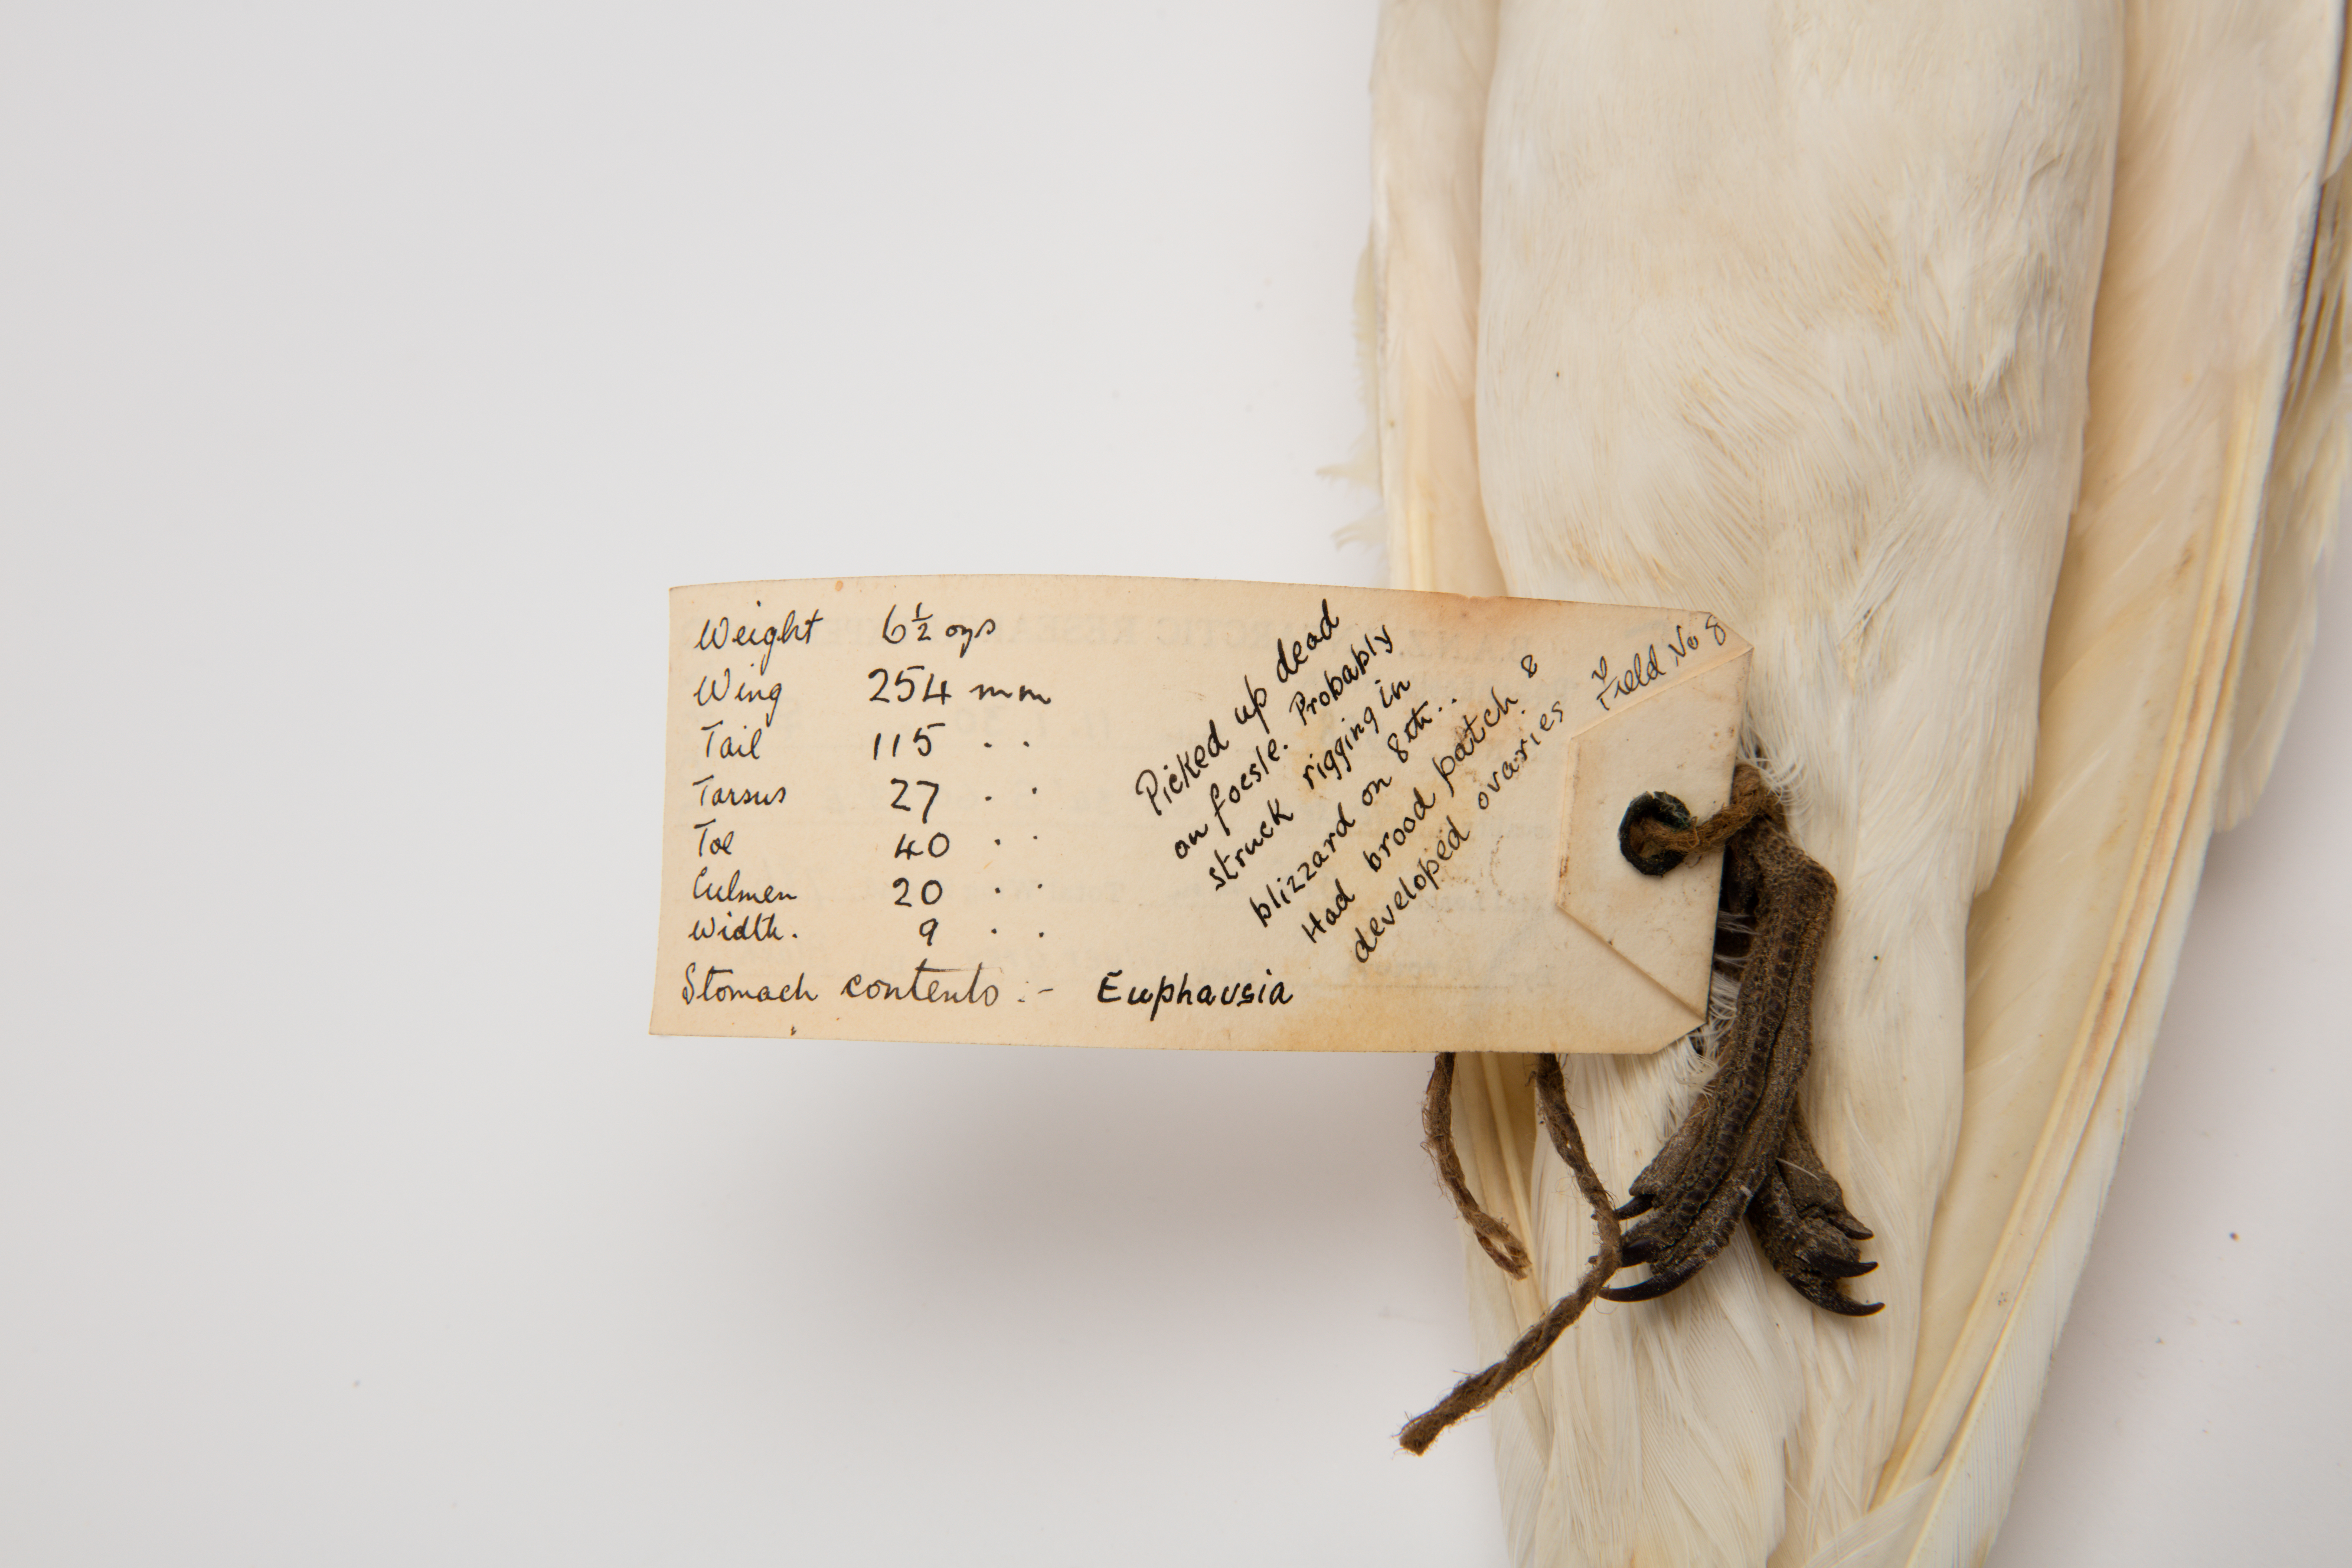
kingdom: Animalia
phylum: Chordata
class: Aves
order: Procellariiformes
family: Procellariidae
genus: Pagodroma
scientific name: Pagodroma nivea
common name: Snow petrel
